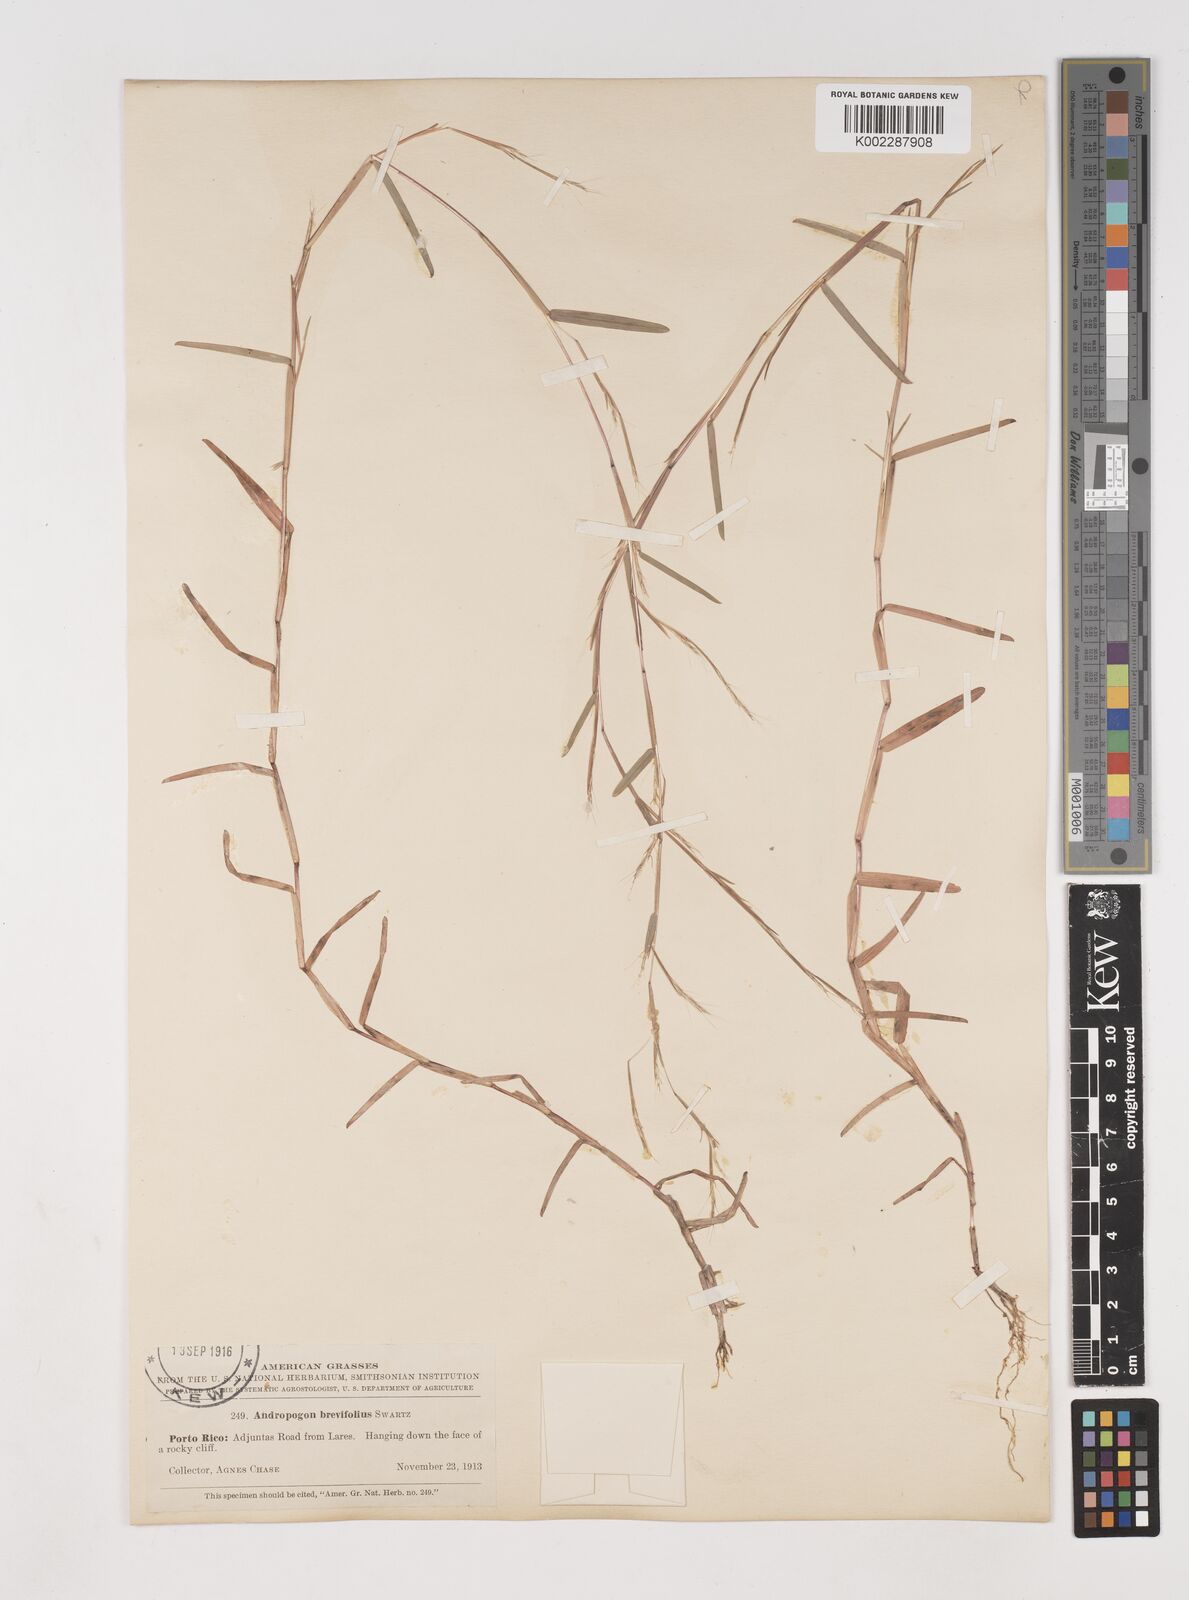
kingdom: Plantae
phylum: Tracheophyta
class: Liliopsida
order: Poales
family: Poaceae
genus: Schizachyrium
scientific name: Schizachyrium brevifolium
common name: Serillo dulce
